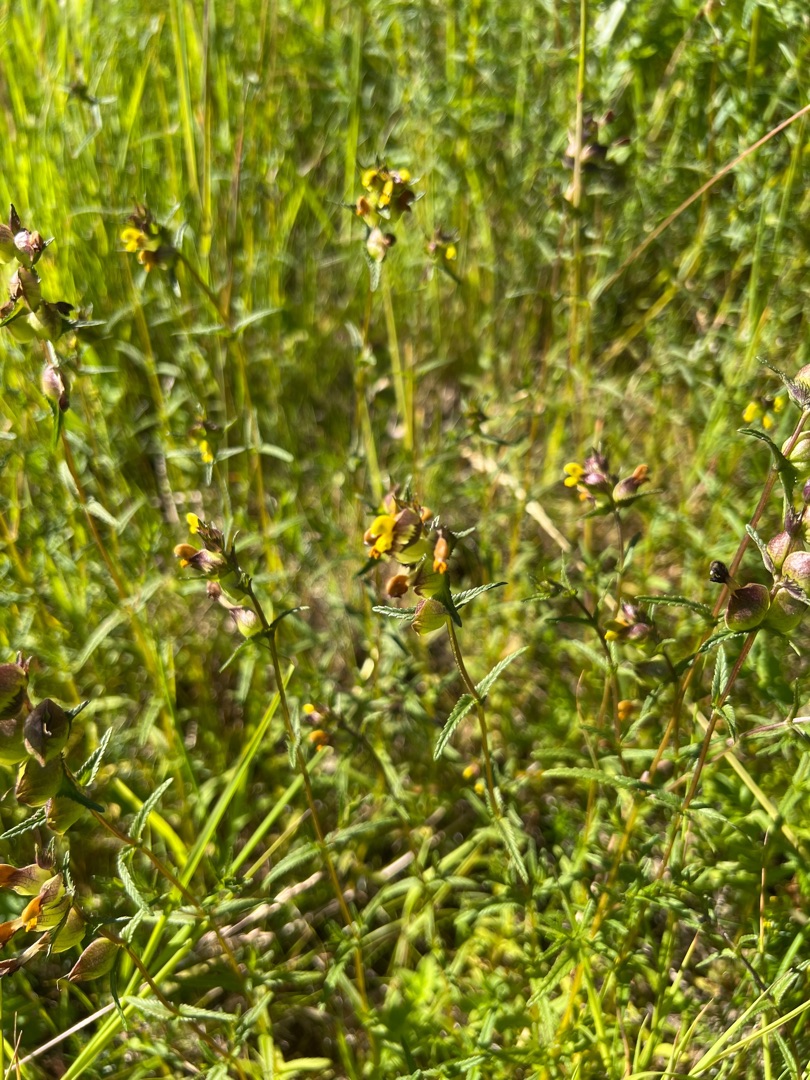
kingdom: Plantae
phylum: Tracheophyta
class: Magnoliopsida
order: Lamiales
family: Orobanchaceae
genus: Rhinanthus
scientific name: Rhinanthus minor
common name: Liden skjaller
